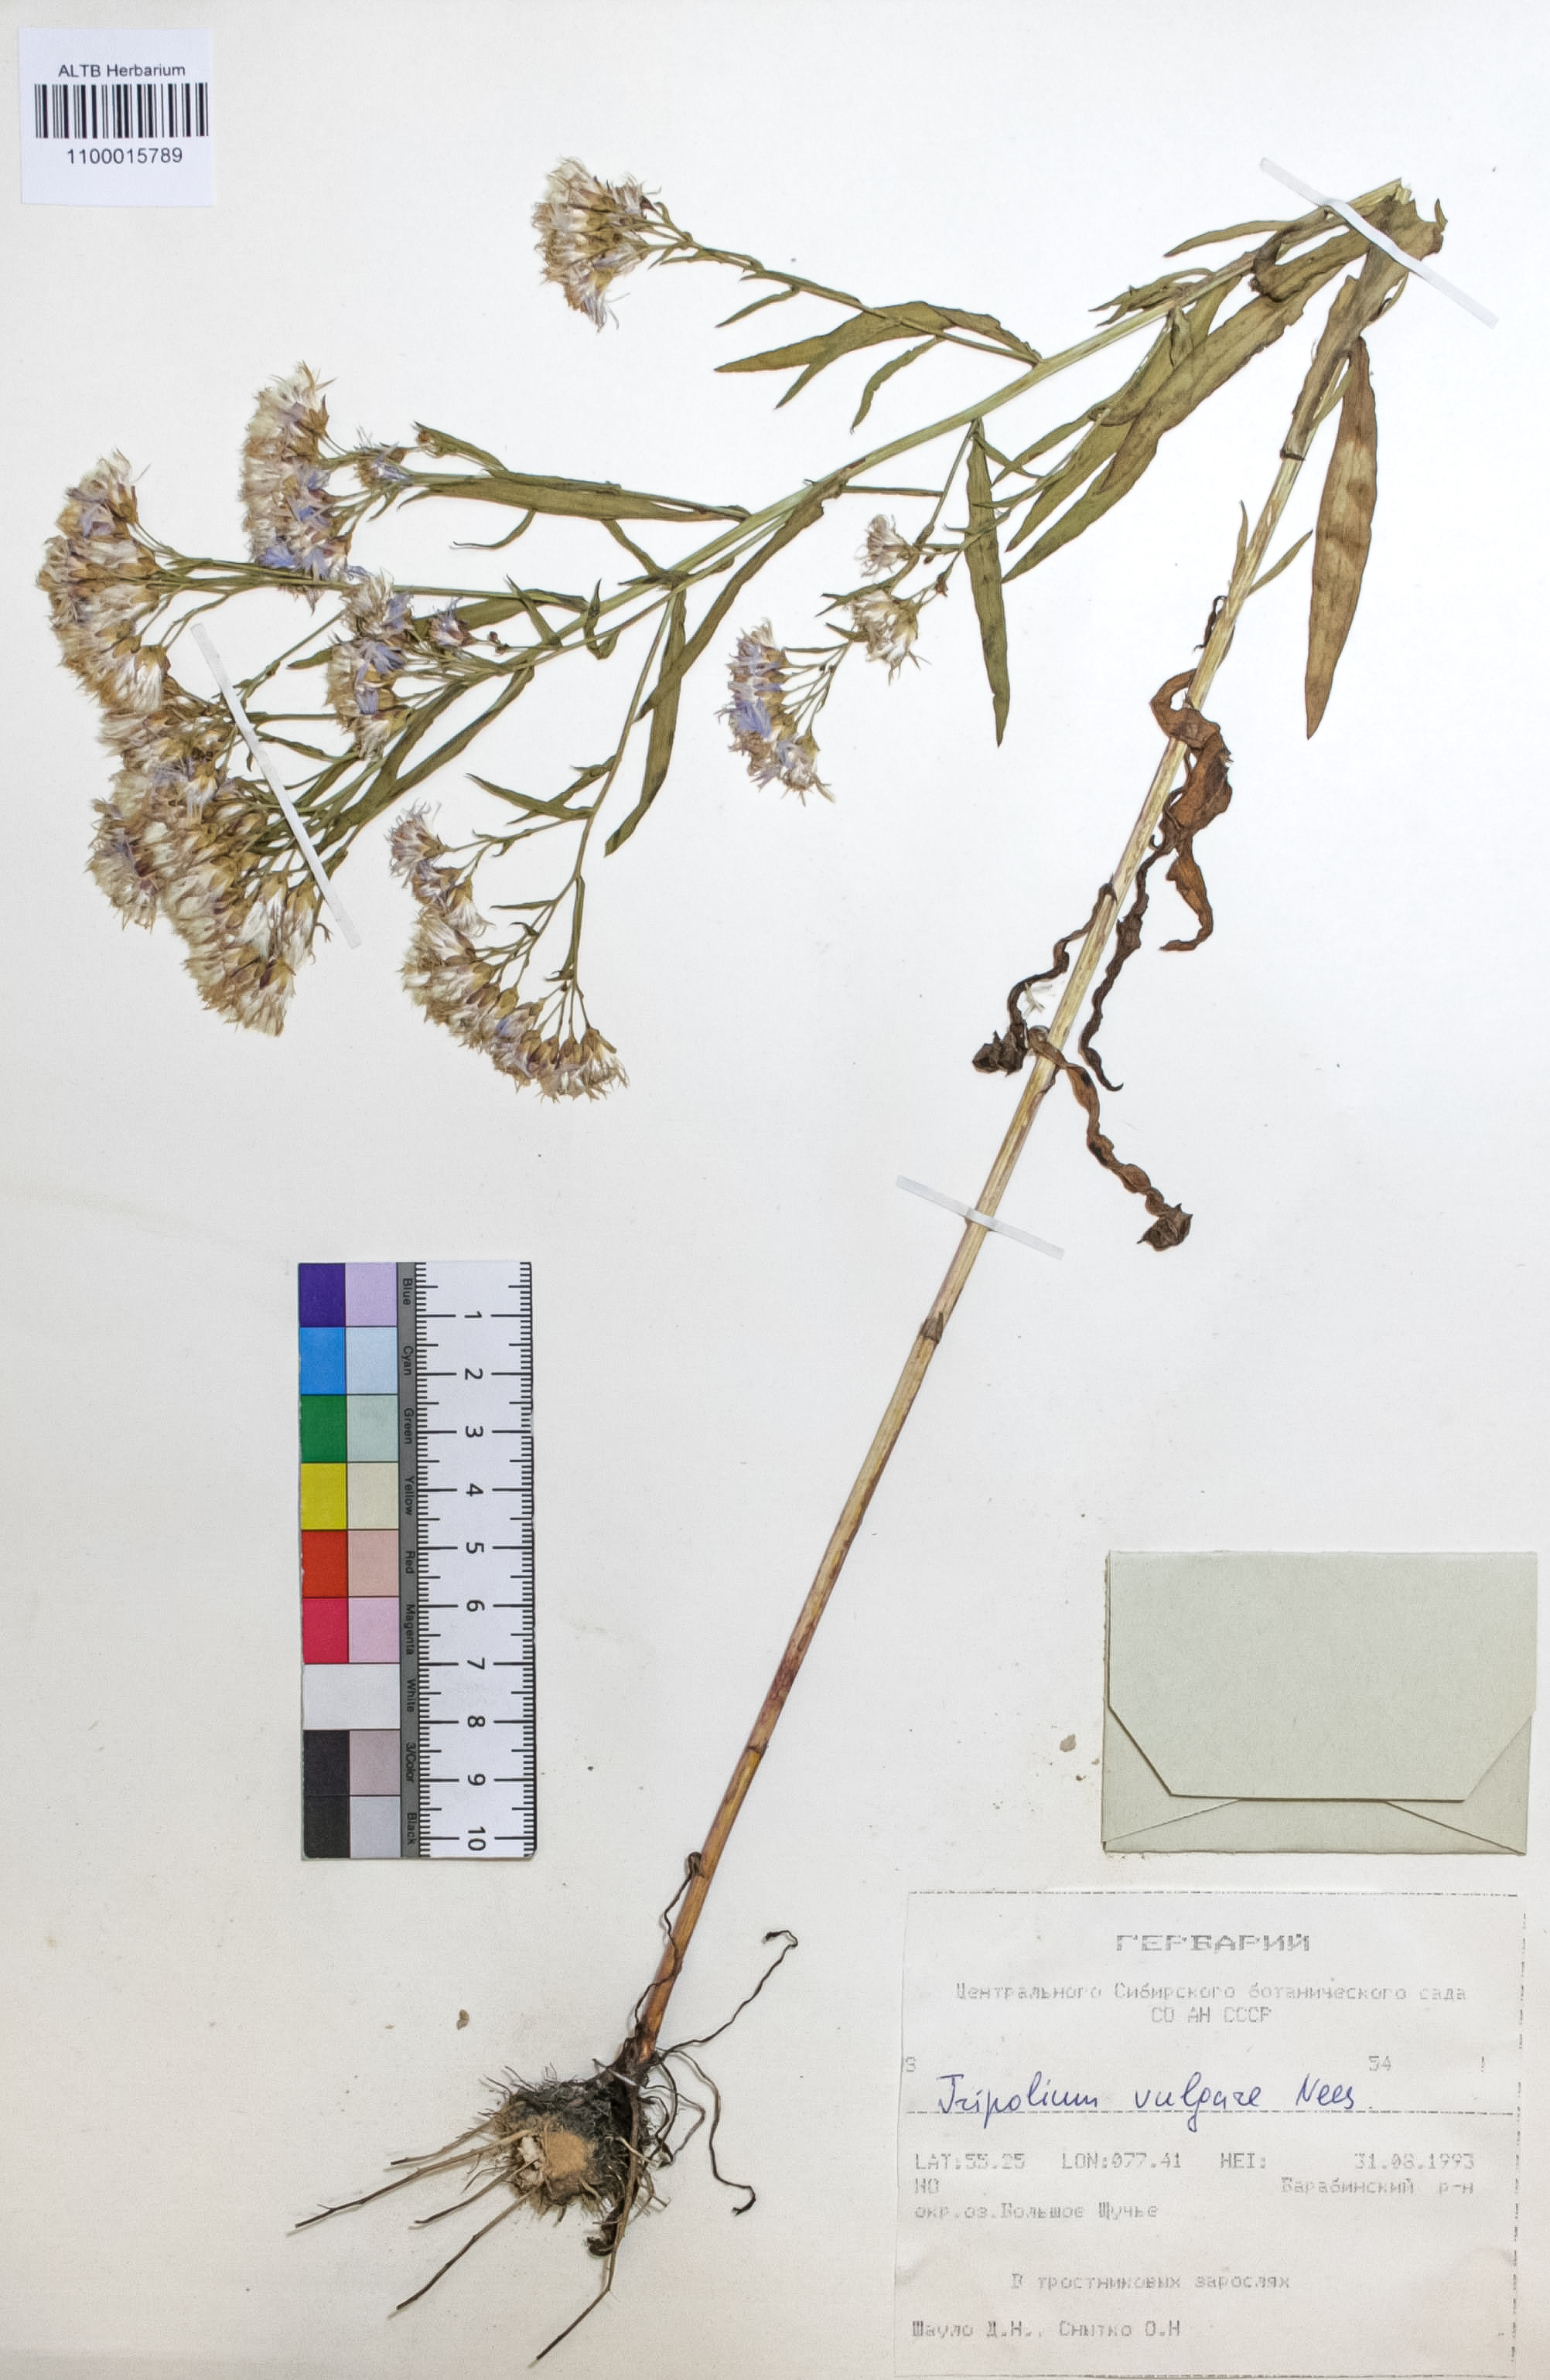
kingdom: Plantae
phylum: Tracheophyta
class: Magnoliopsida
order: Asterales
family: Asteraceae
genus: Tripolium
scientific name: Tripolium pannonicum
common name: Sea aster
